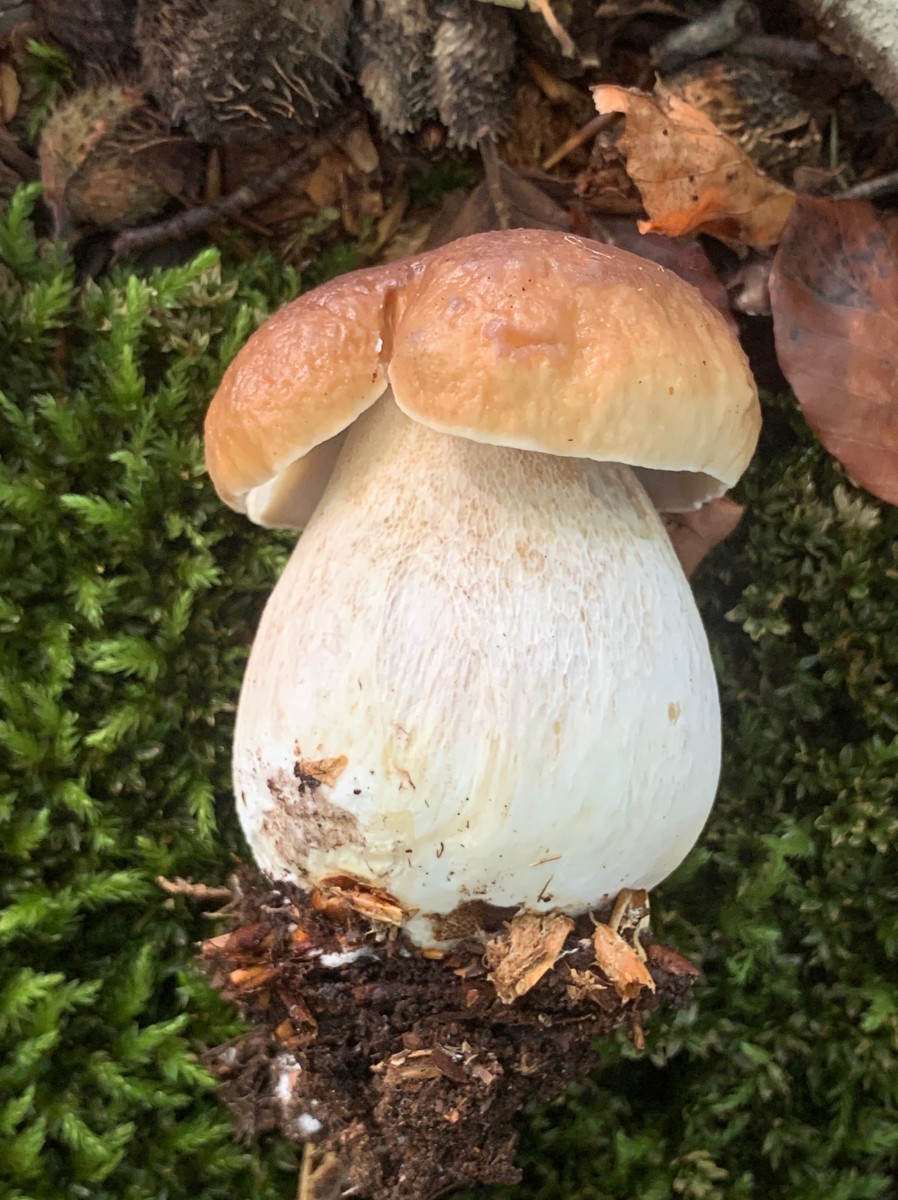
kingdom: Fungi
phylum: Basidiomycota
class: Agaricomycetes
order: Boletales
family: Boletaceae
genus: Boletus
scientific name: Boletus edulis
